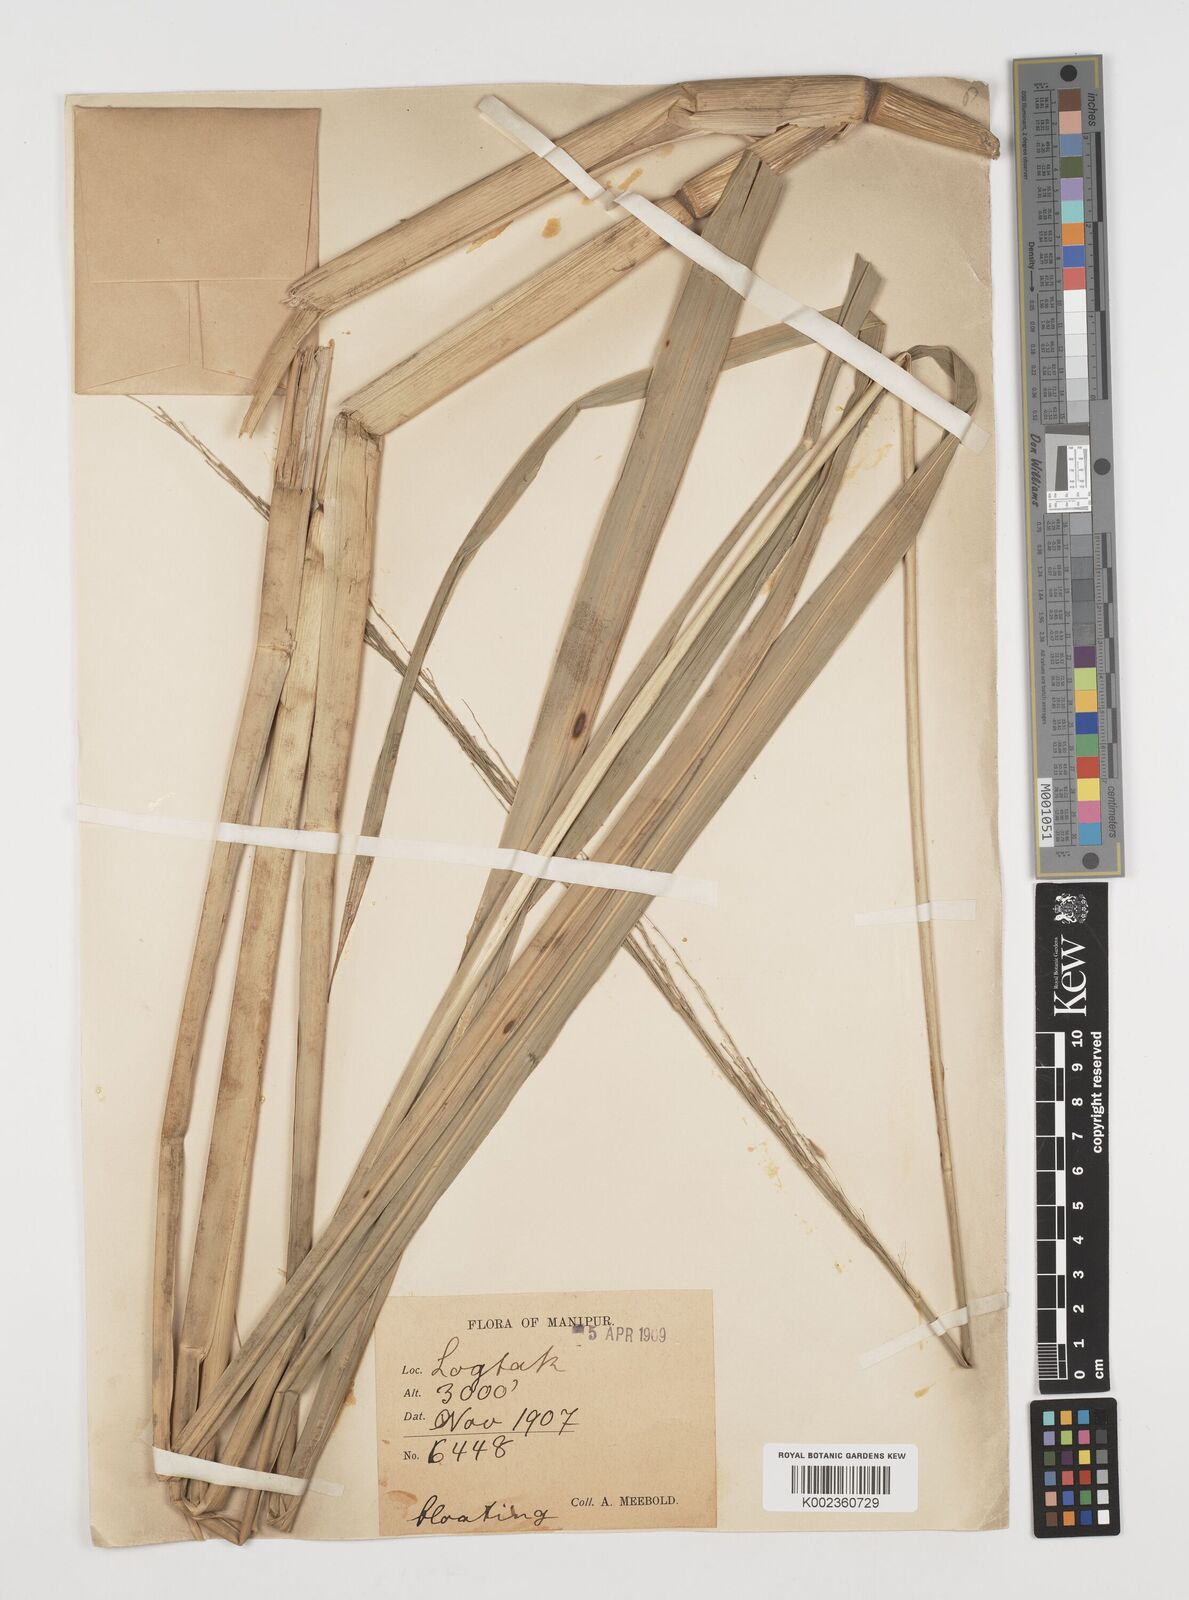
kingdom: Plantae
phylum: Tracheophyta
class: Liliopsida
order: Poales
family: Poaceae
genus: Zizania
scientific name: Zizania latifolia
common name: Manchurian wildrice
